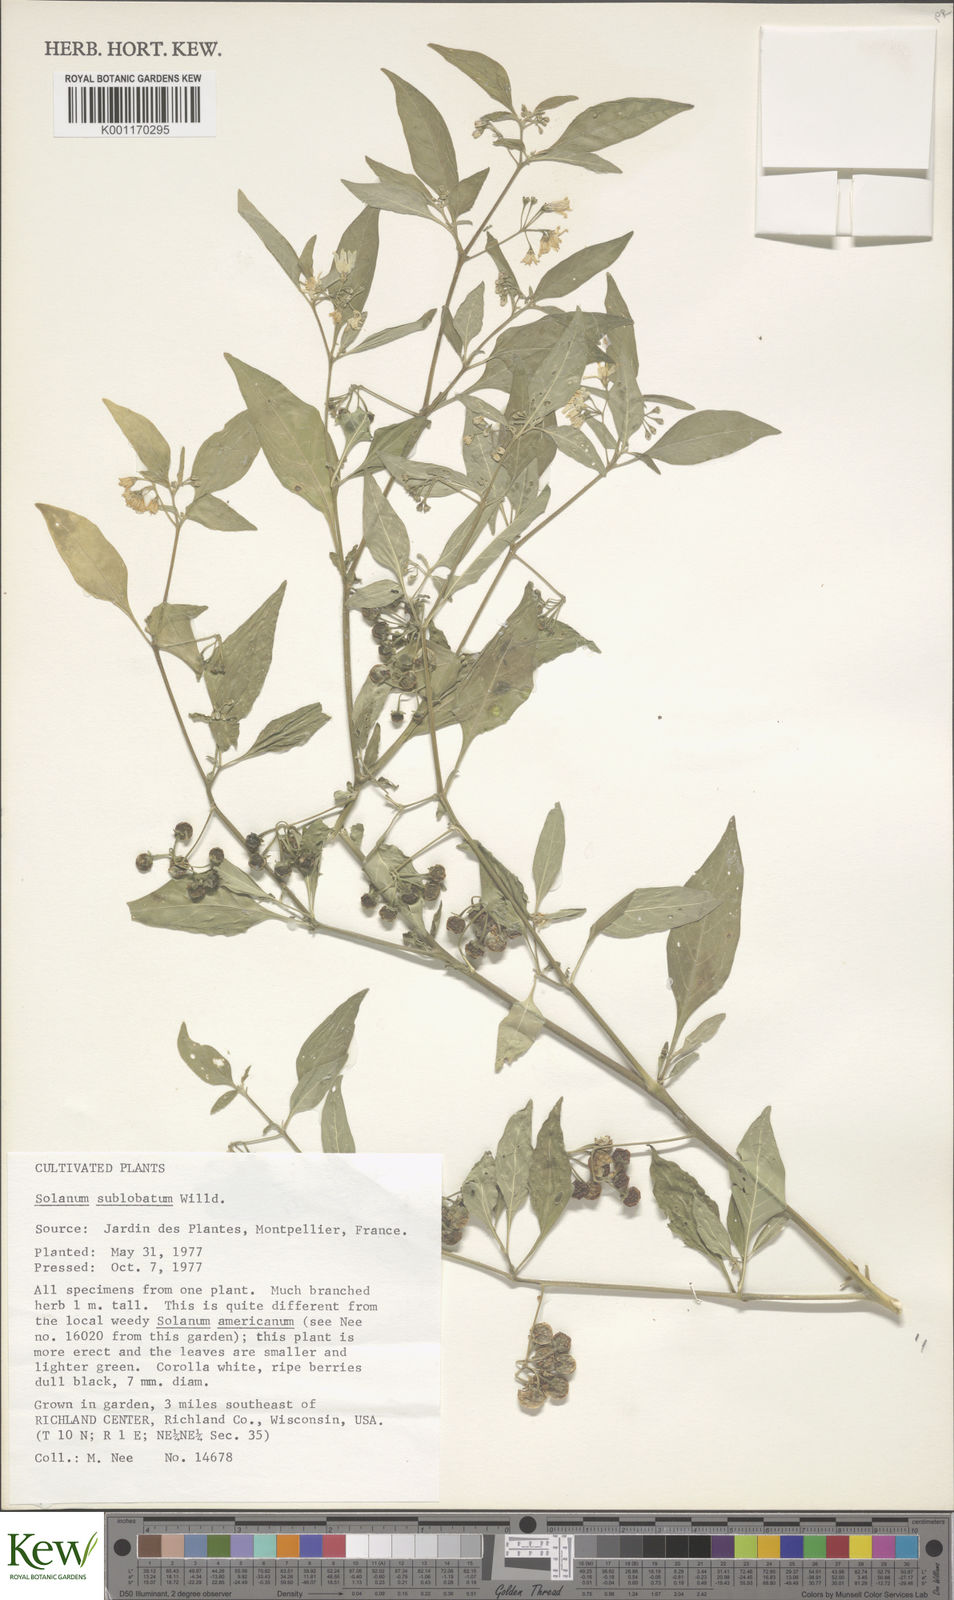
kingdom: Plantae
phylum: Tracheophyta
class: Magnoliopsida
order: Solanales
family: Solanaceae
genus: Solanum
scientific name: Solanum chenopodioides
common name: Tall nightshade
